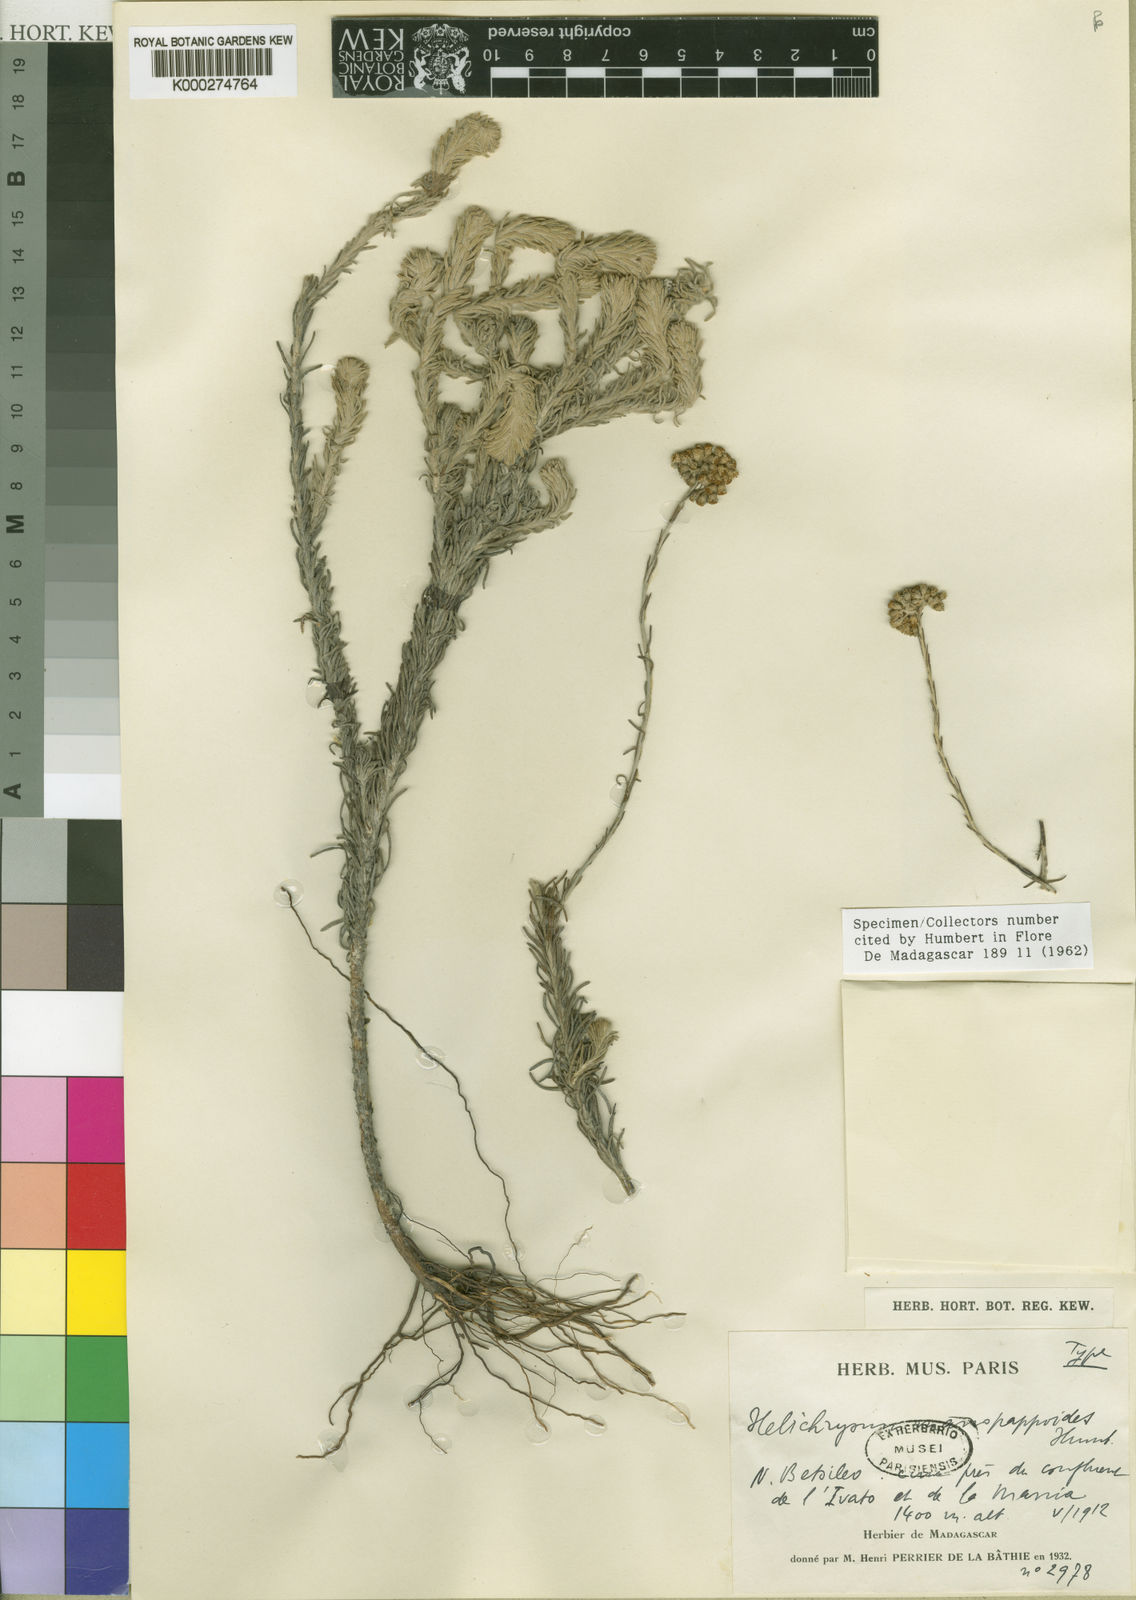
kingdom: Plantae
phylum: Tracheophyta
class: Magnoliopsida
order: Asterales
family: Asteraceae
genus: Helichrysum
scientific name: Helichrysum manopappoides
